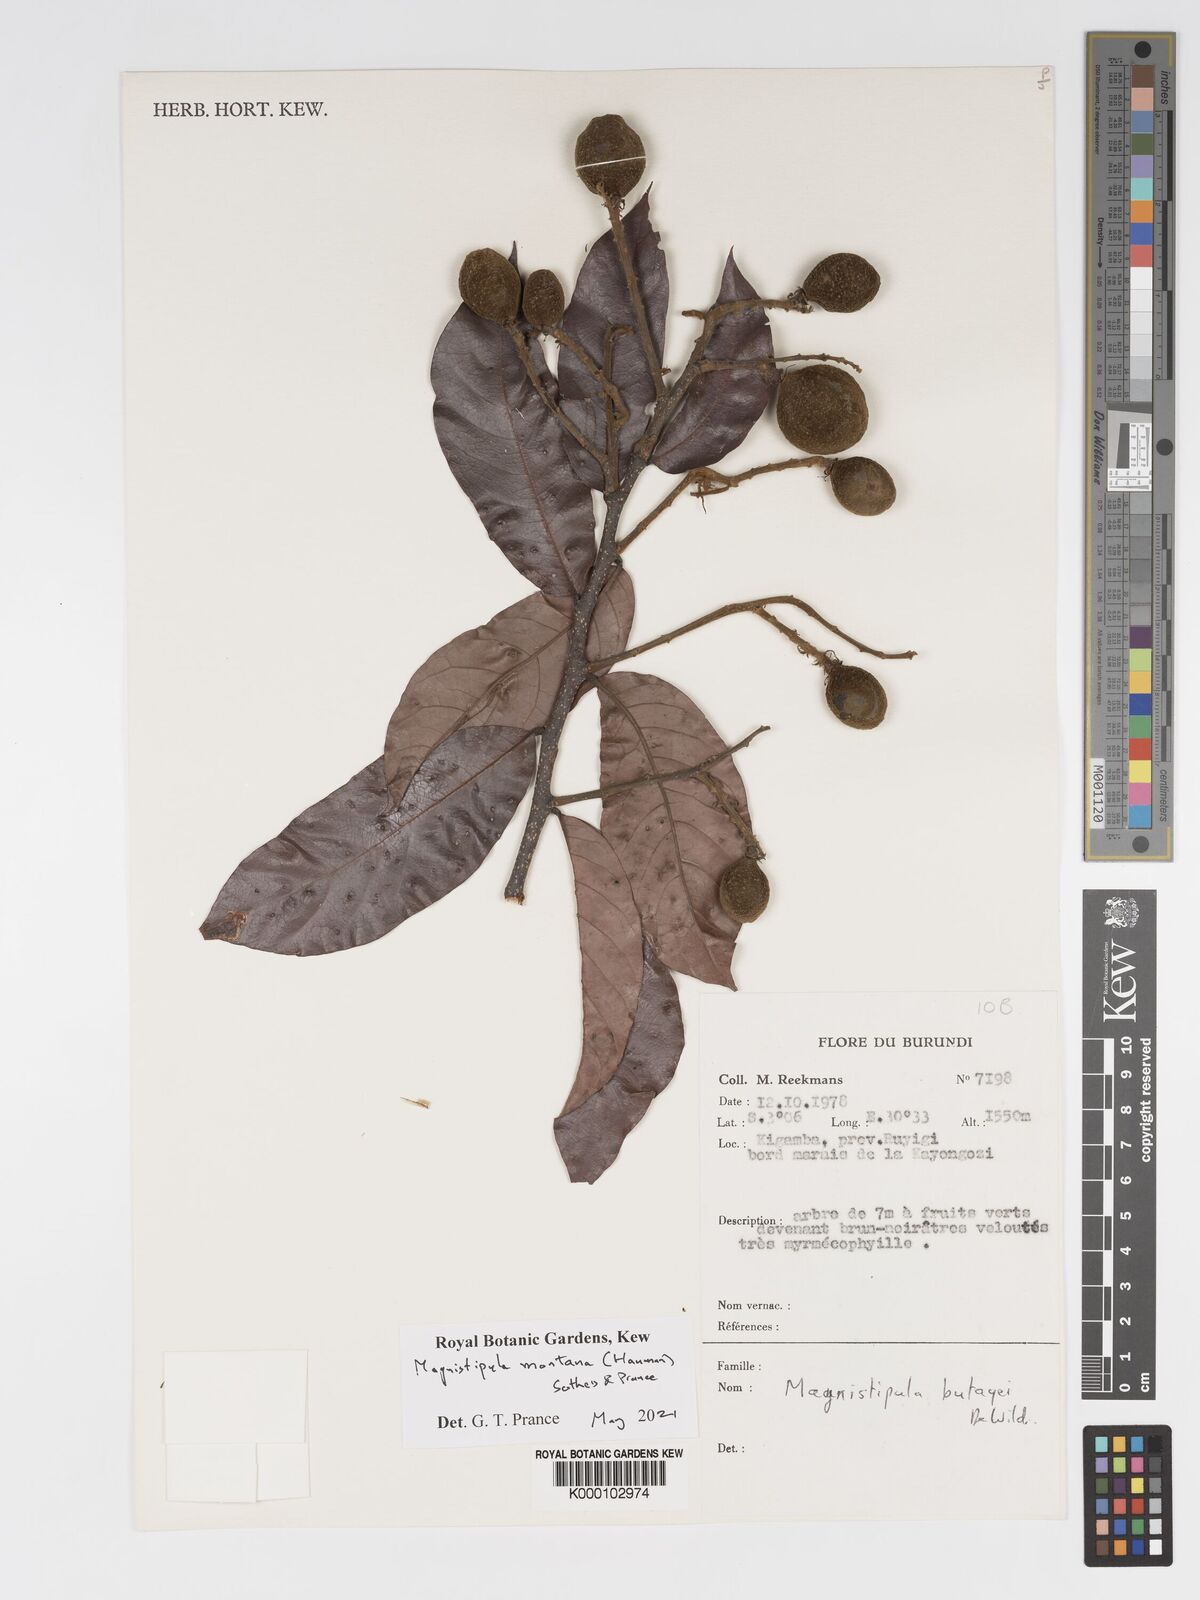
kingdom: Plantae
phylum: Tracheophyta
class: Magnoliopsida
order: Malpighiales
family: Chrysobalanaceae
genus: Magnistipula
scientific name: Magnistipula butayei
